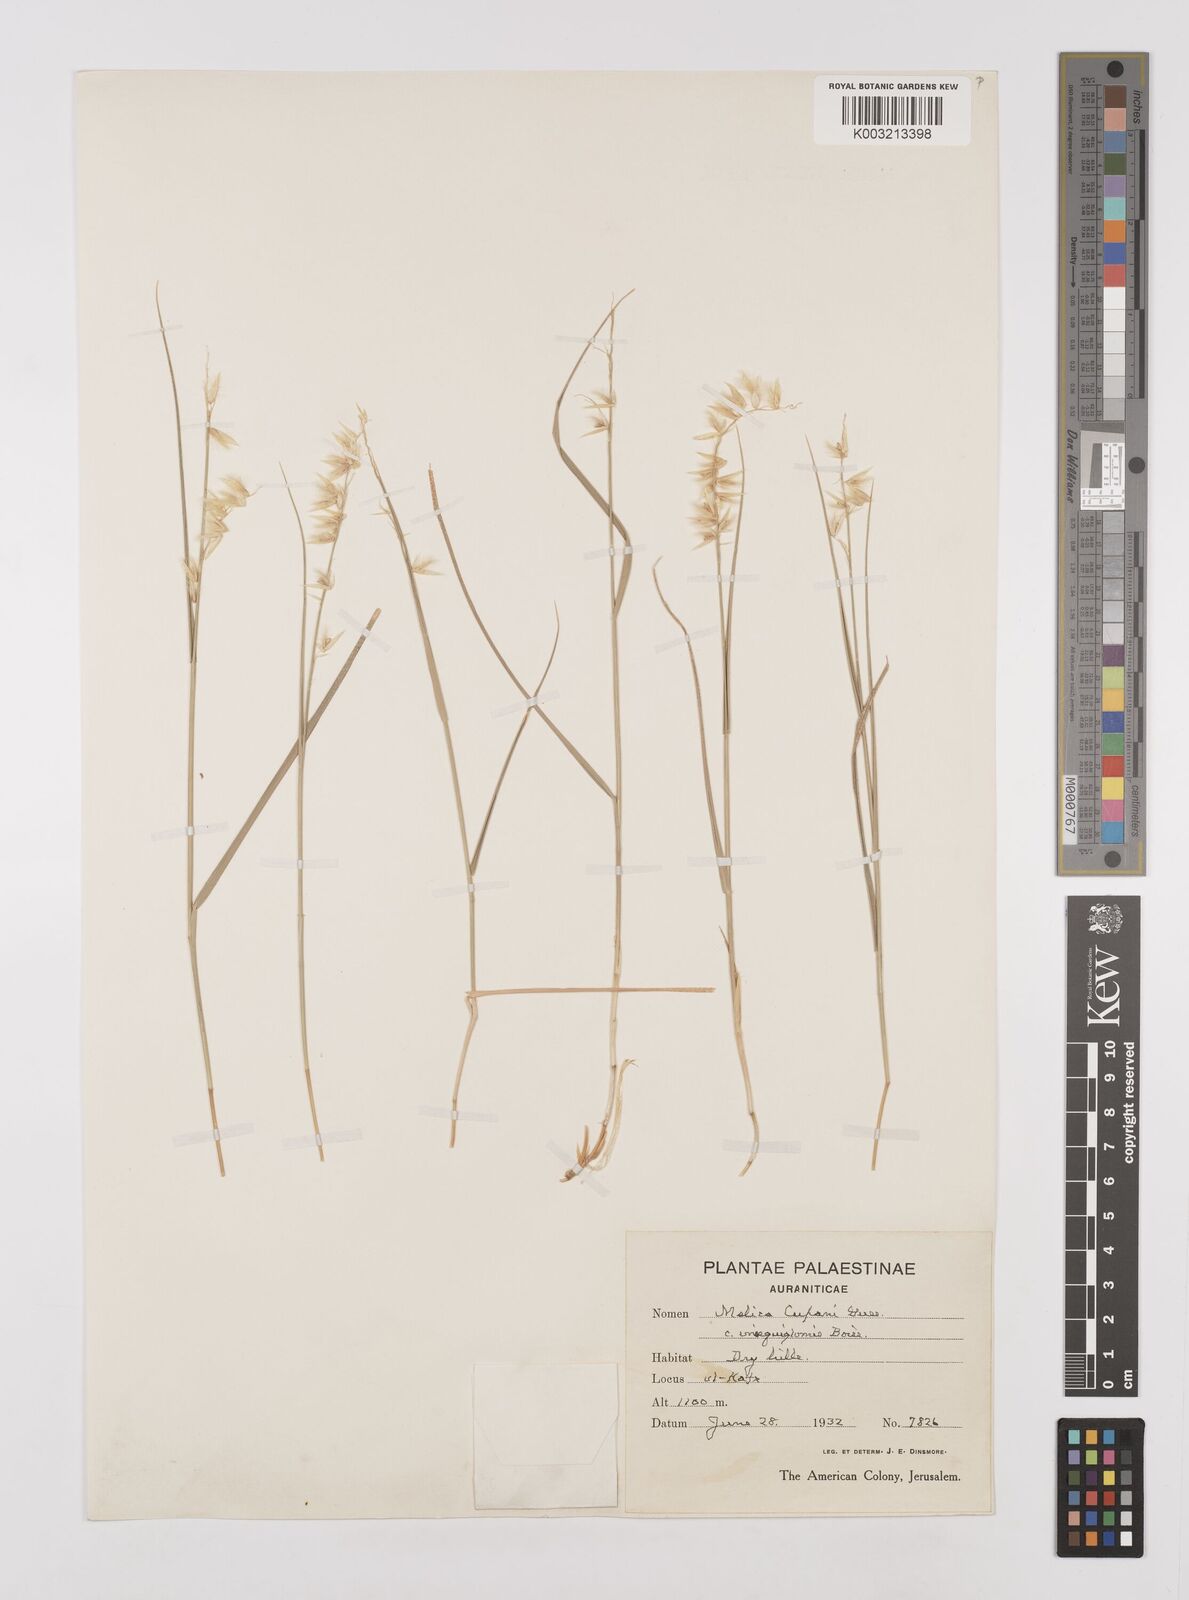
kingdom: Plantae
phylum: Tracheophyta
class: Liliopsida
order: Poales
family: Poaceae
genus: Melica
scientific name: Melica persica
